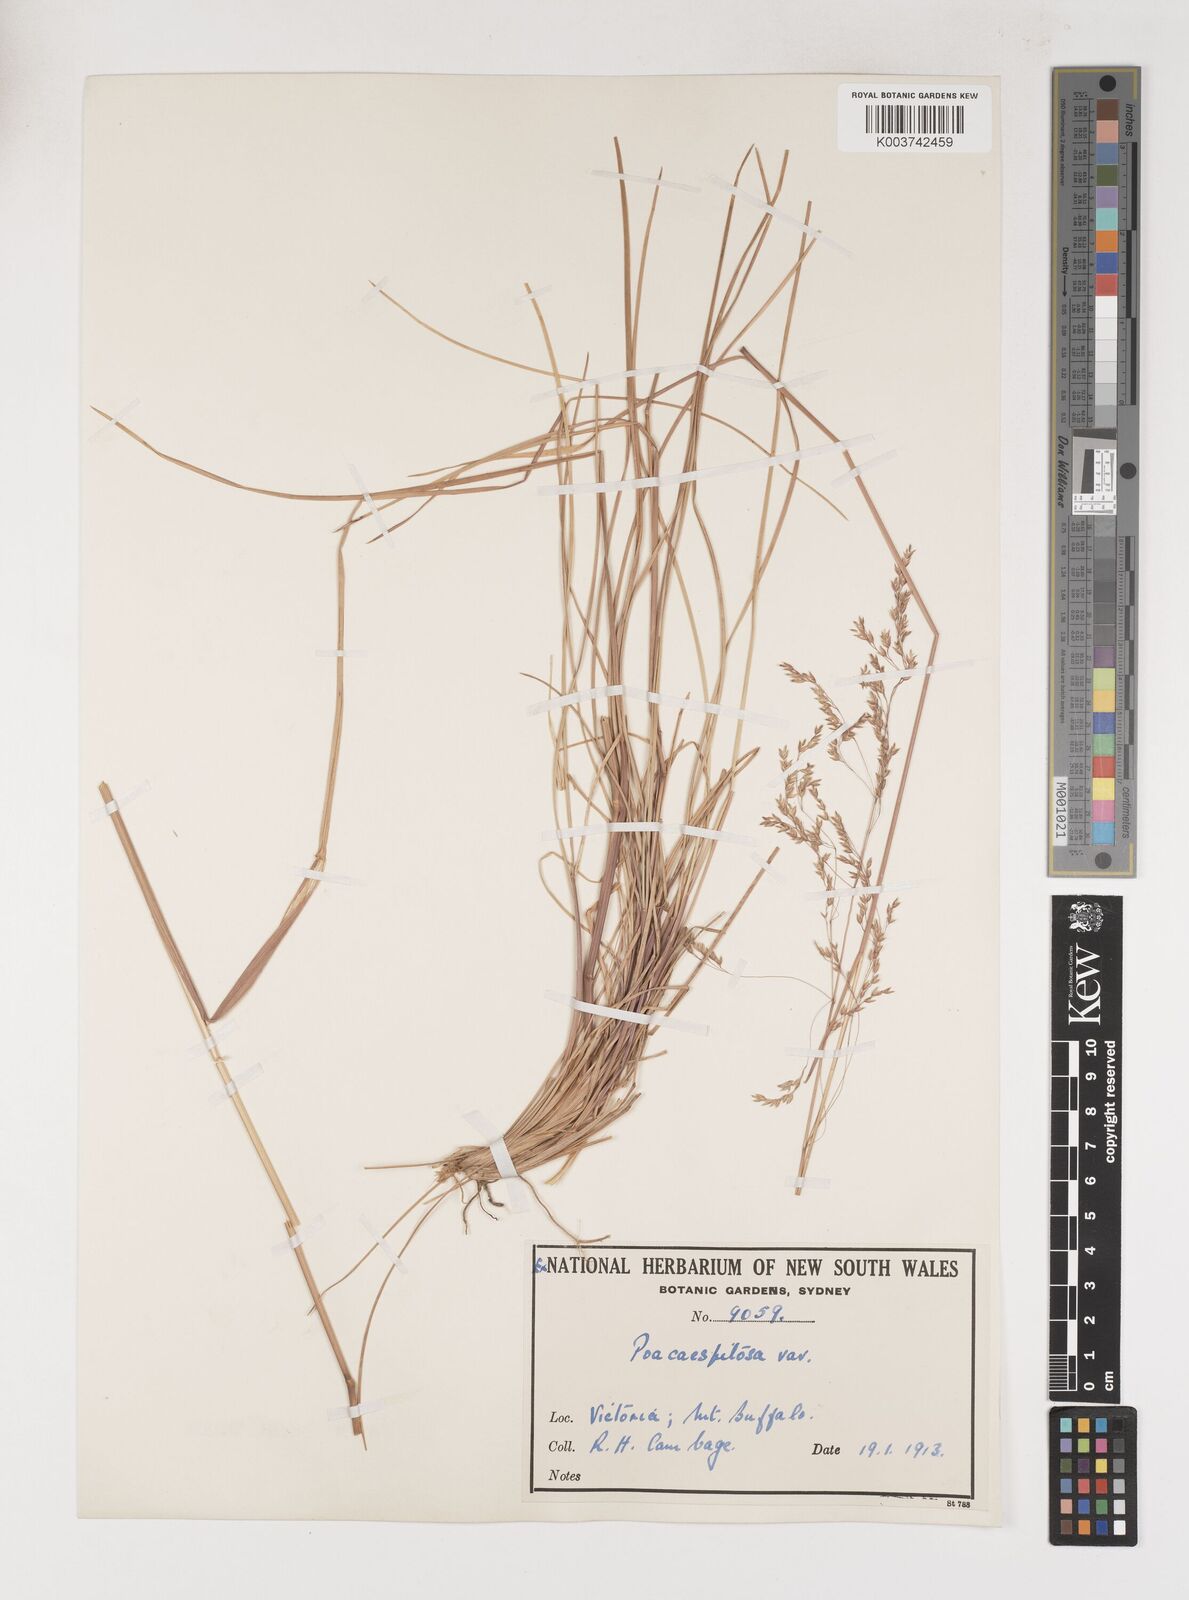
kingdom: Plantae
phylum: Tracheophyta
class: Liliopsida
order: Poales
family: Poaceae
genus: Poa
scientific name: Poa
